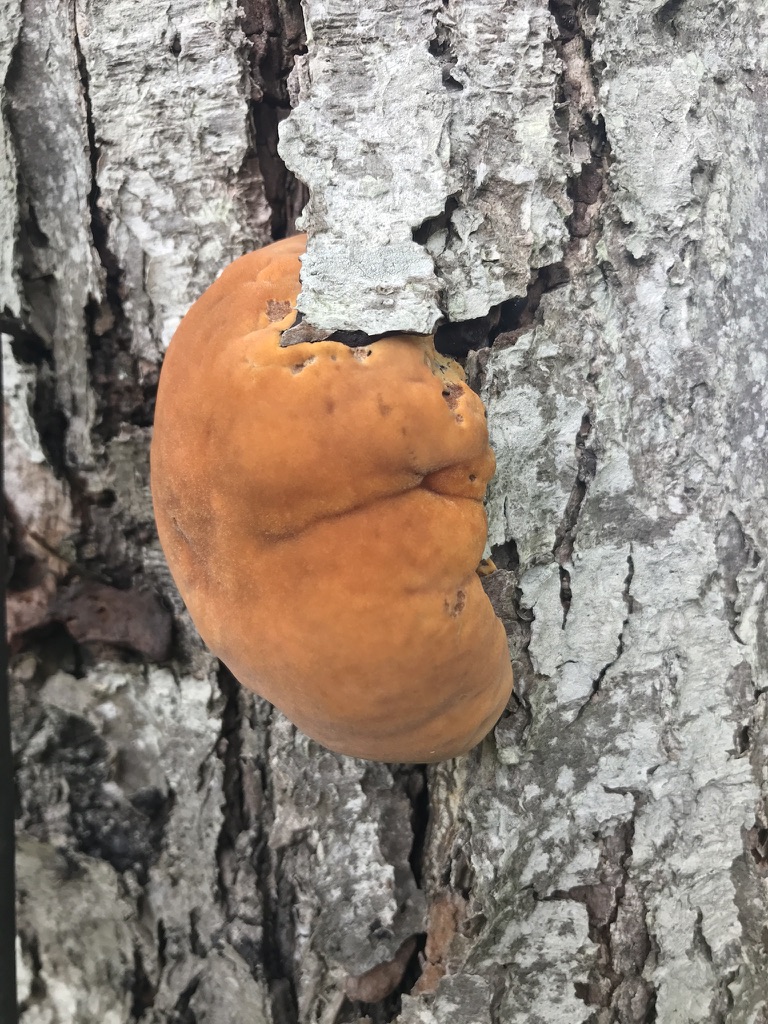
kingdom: Fungi
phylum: Basidiomycota
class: Agaricomycetes
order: Hymenochaetales
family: Hymenochaetaceae
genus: Inonotus
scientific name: Inonotus hispidus
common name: børstehåret spejlporesvamp
